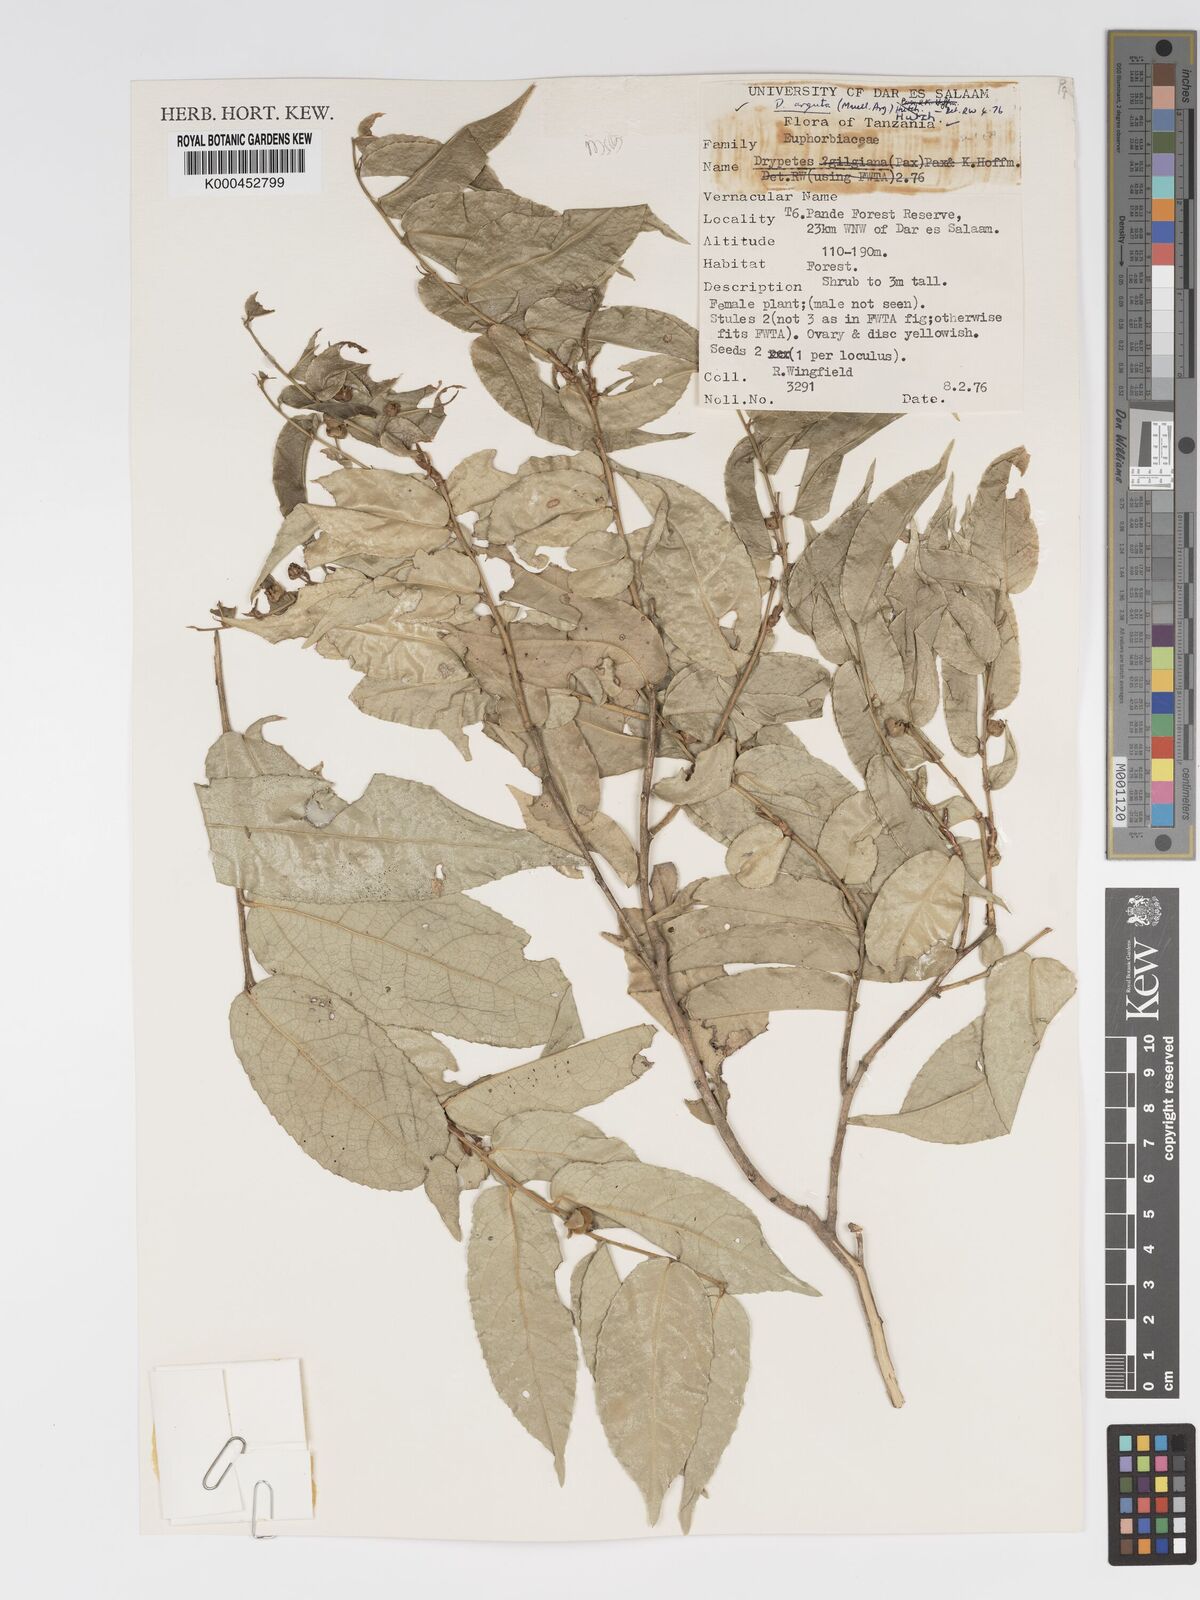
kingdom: Plantae
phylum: Tracheophyta
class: Magnoliopsida
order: Malpighiales
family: Putranjivaceae
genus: Drypetes
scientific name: Drypetes
